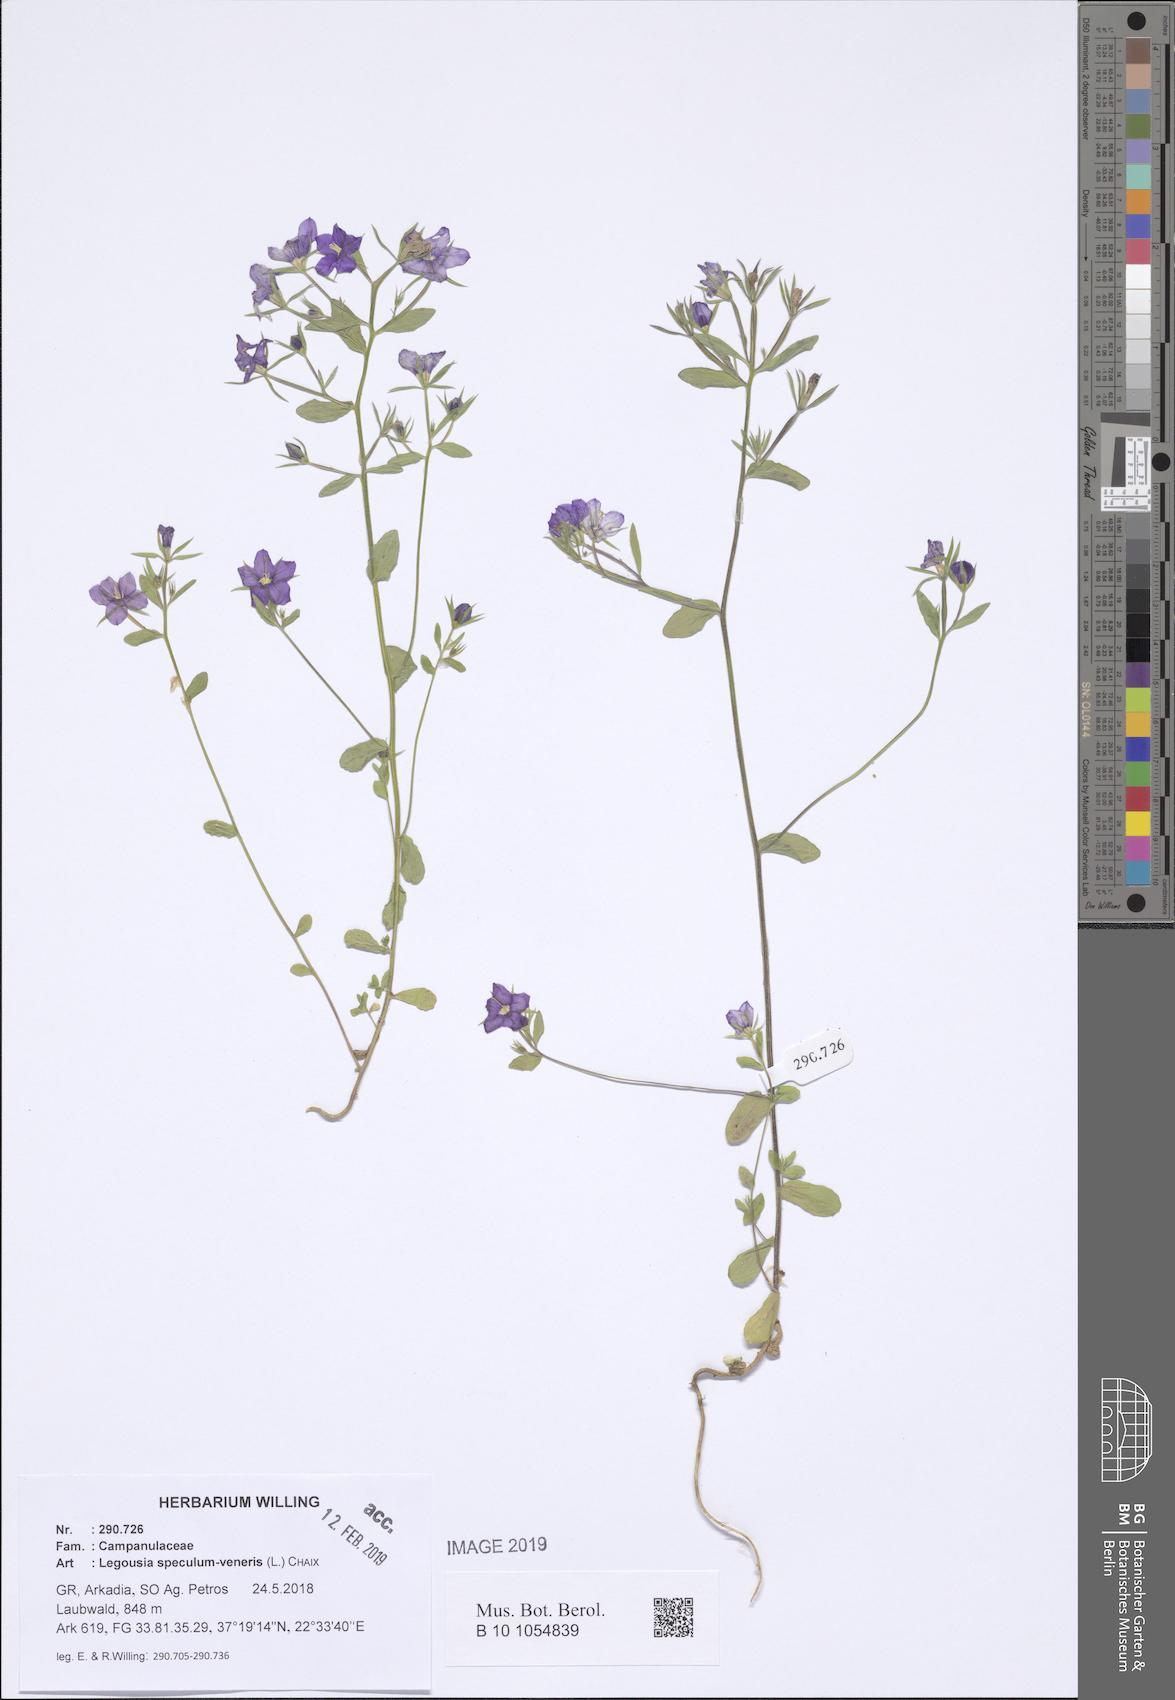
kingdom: Plantae
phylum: Tracheophyta
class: Magnoliopsida
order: Asterales
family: Campanulaceae
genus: Legousia
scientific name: Legousia speculum-veneris
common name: Large venus's-looking-glass
